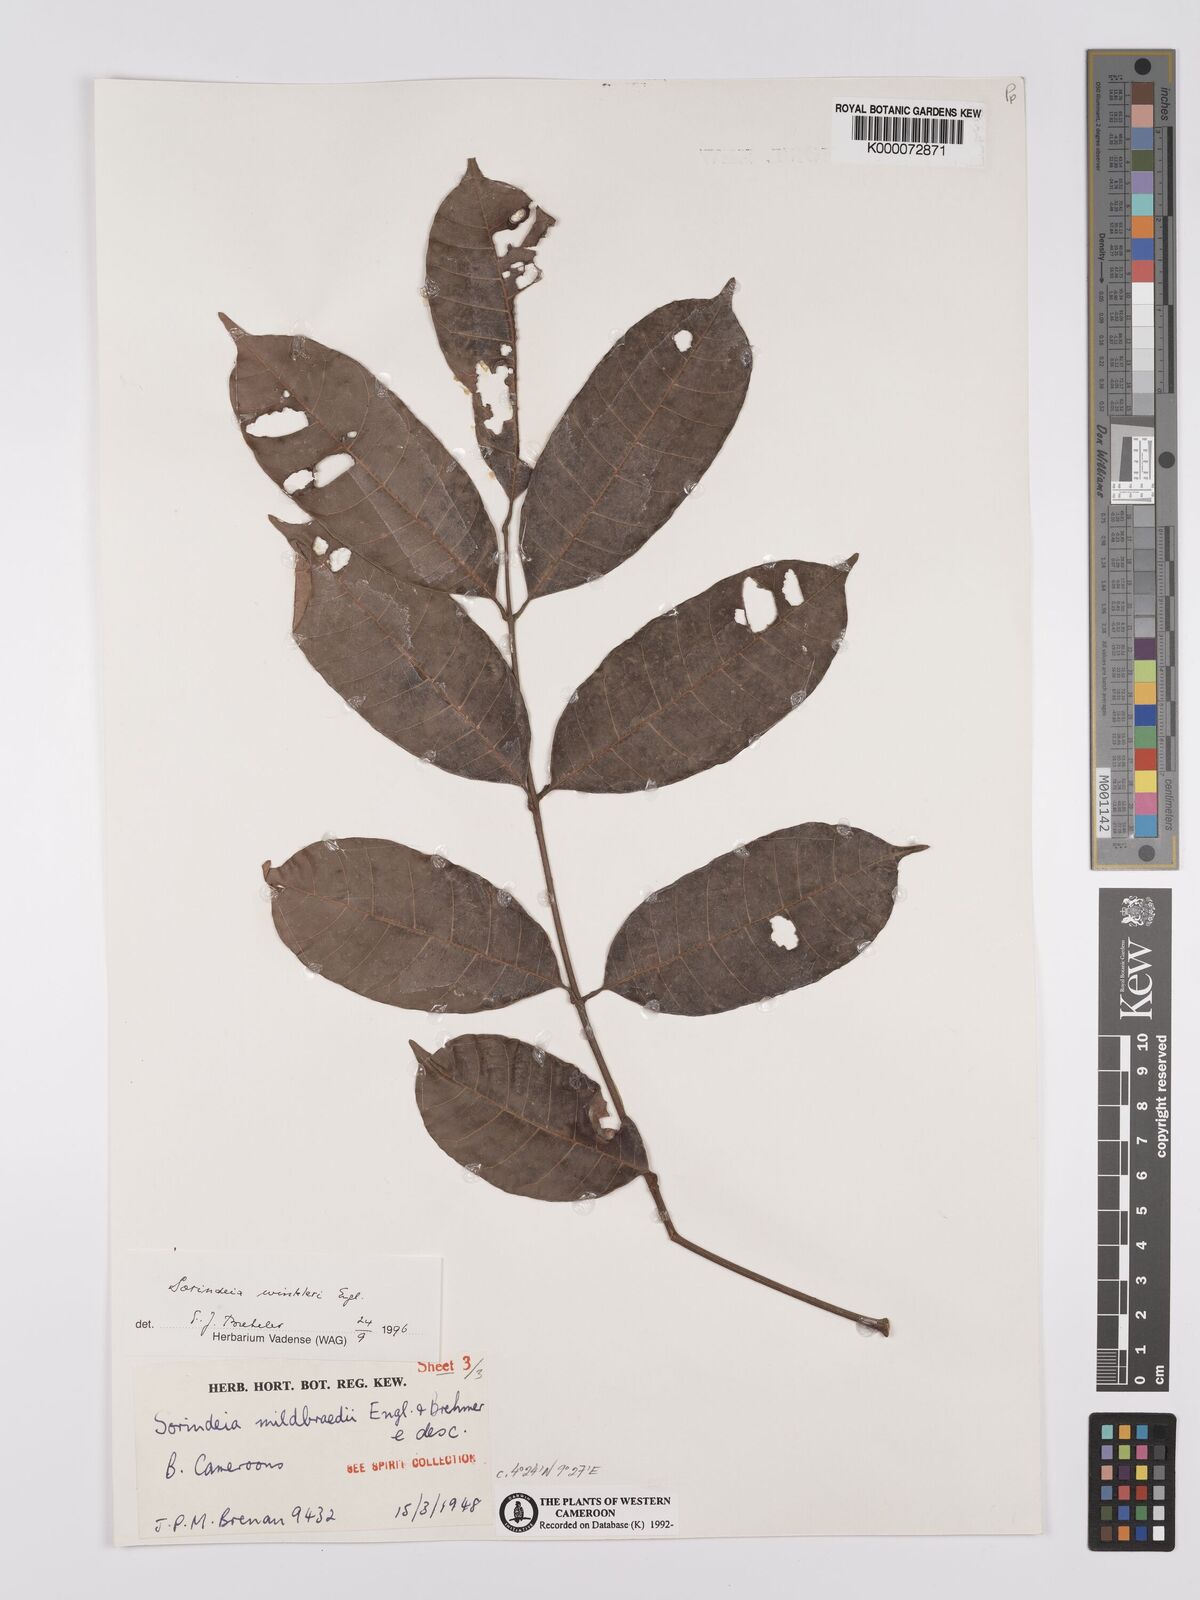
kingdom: Plantae
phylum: Tracheophyta
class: Magnoliopsida
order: Sapindales
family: Anacardiaceae
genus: Sorindeia
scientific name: Sorindeia winkleri
